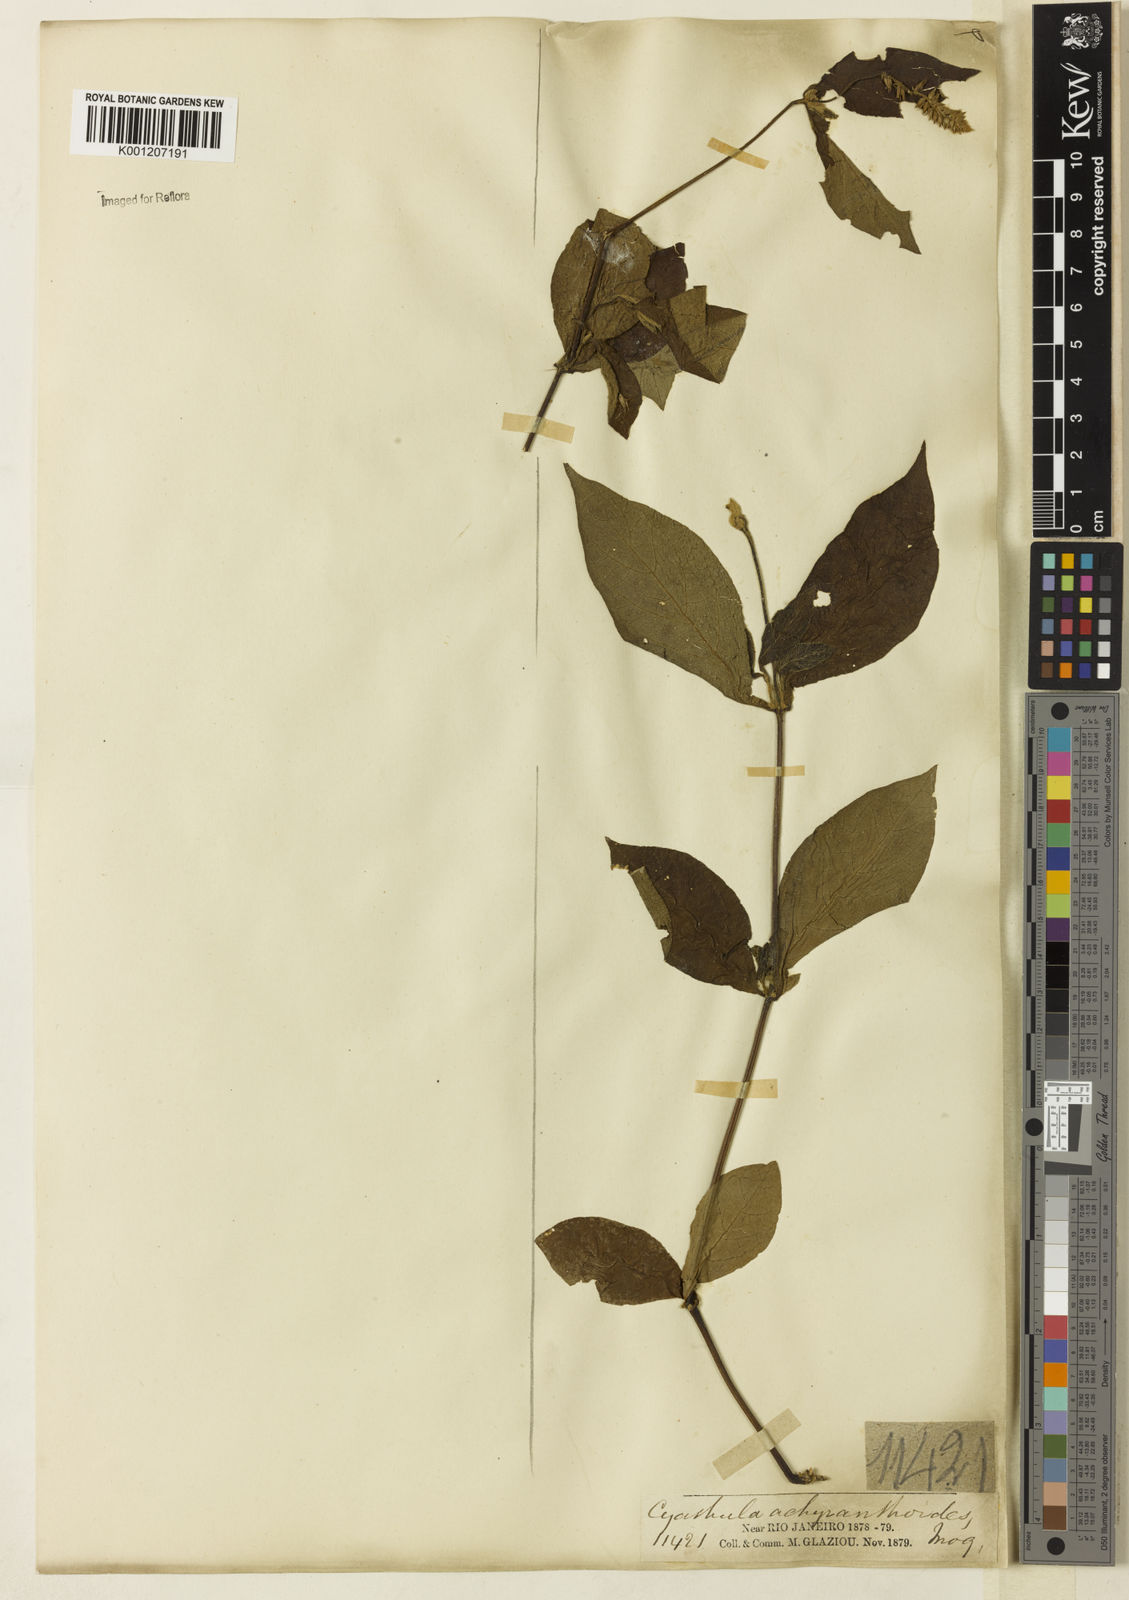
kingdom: Plantae
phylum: Tracheophyta
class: Magnoliopsida
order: Caryophyllales
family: Amaranthaceae
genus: Cyathula
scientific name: Cyathula achyranthoides
